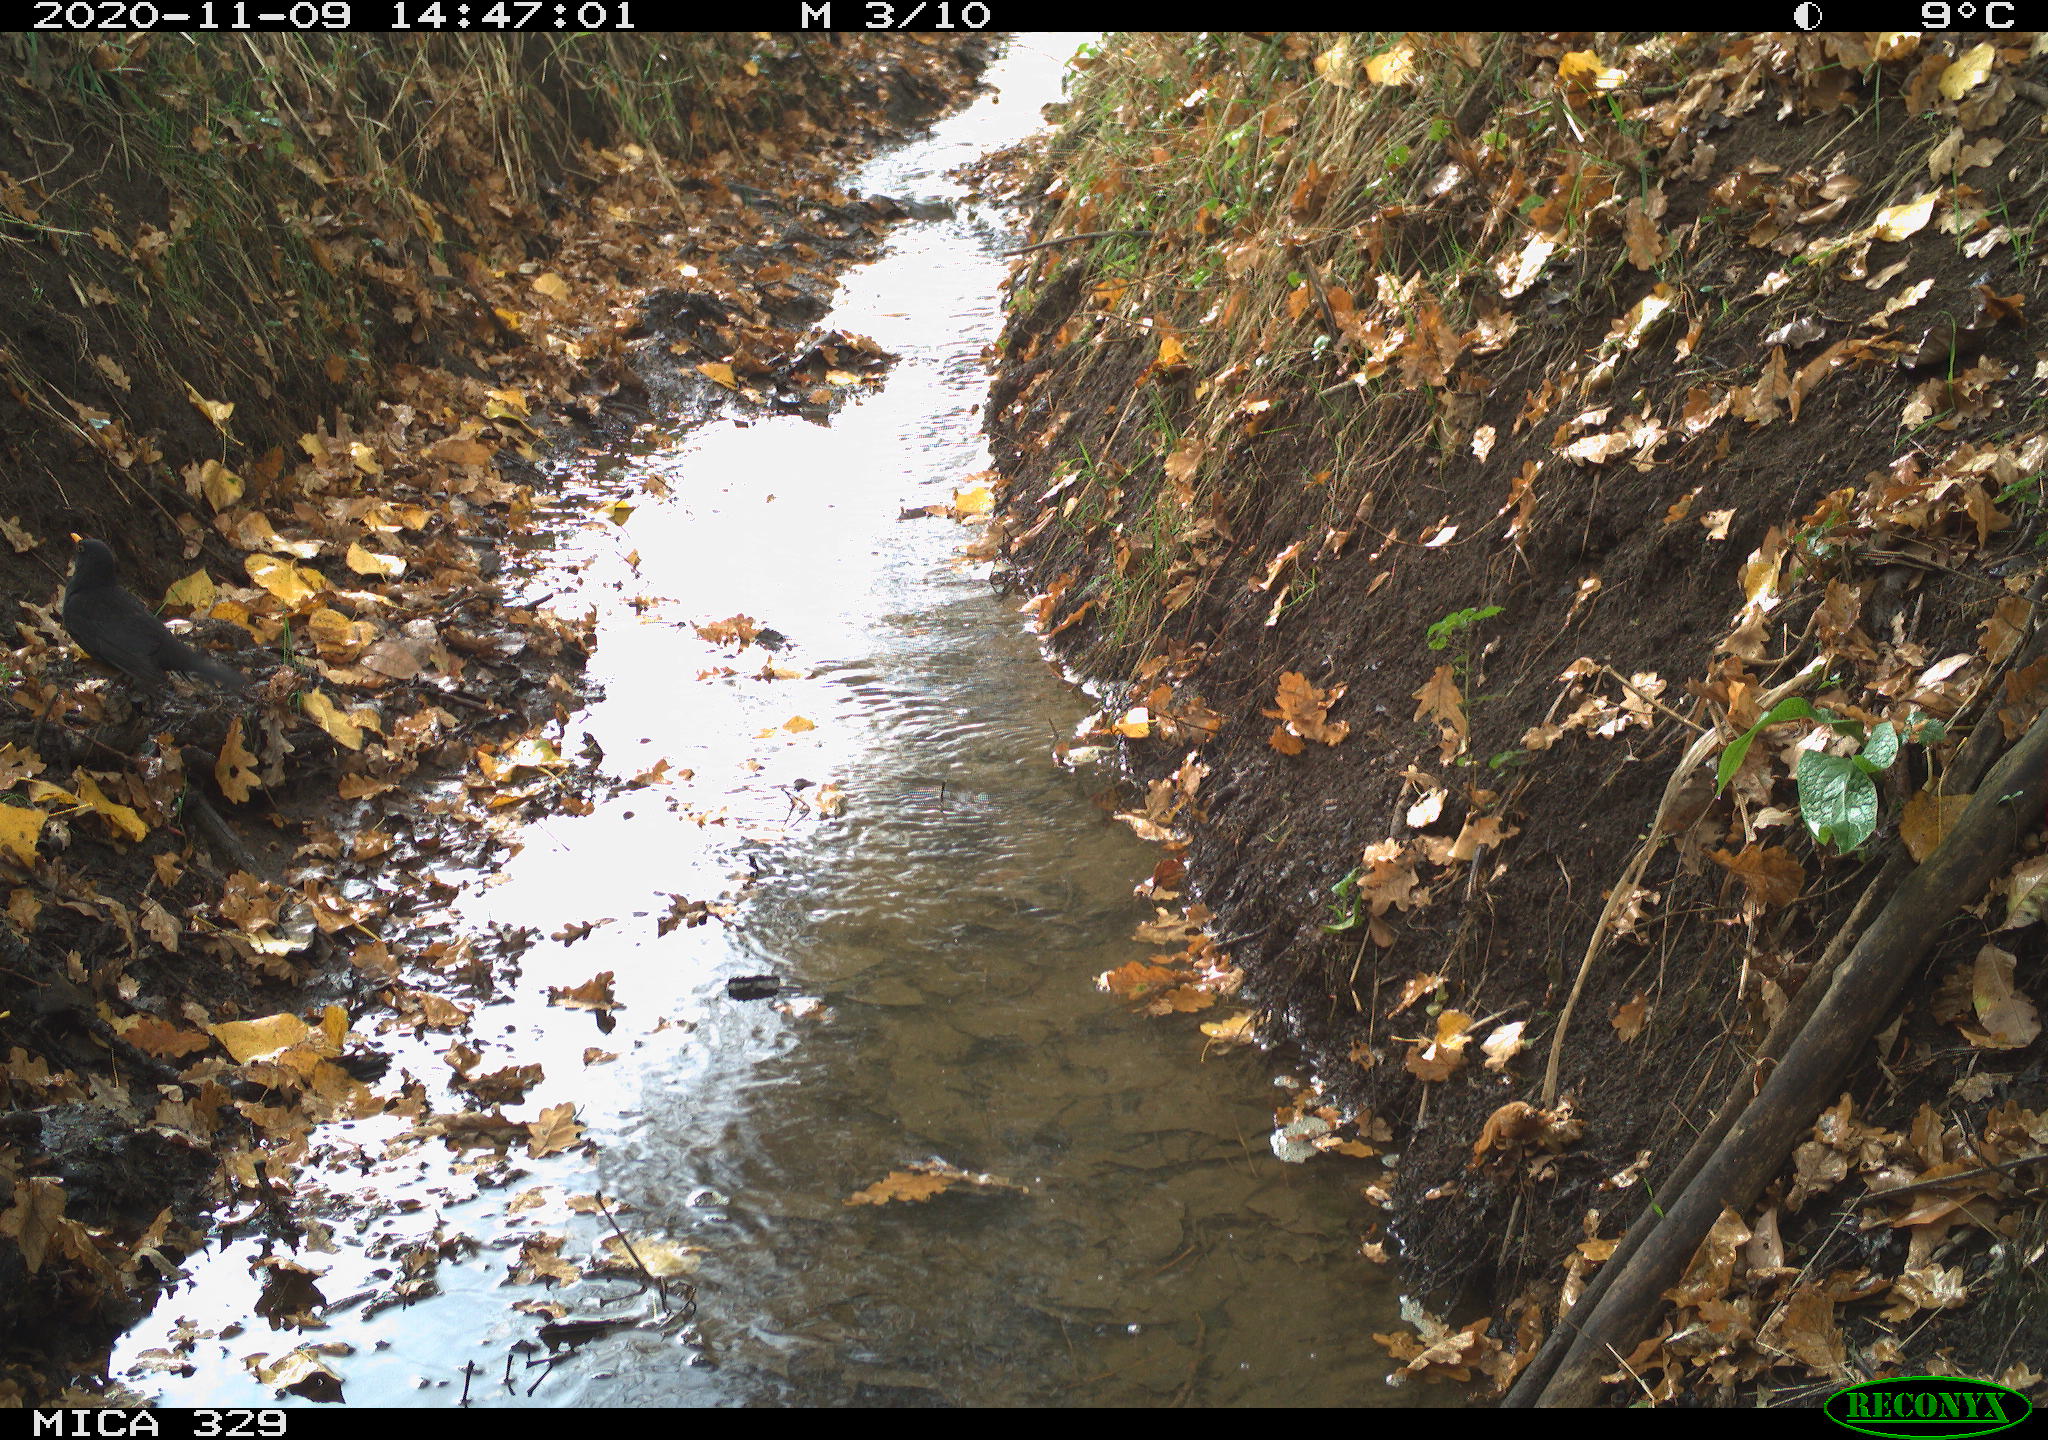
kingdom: Animalia
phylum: Chordata
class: Aves
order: Passeriformes
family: Turdidae
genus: Turdus
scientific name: Turdus merula
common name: Common blackbird
